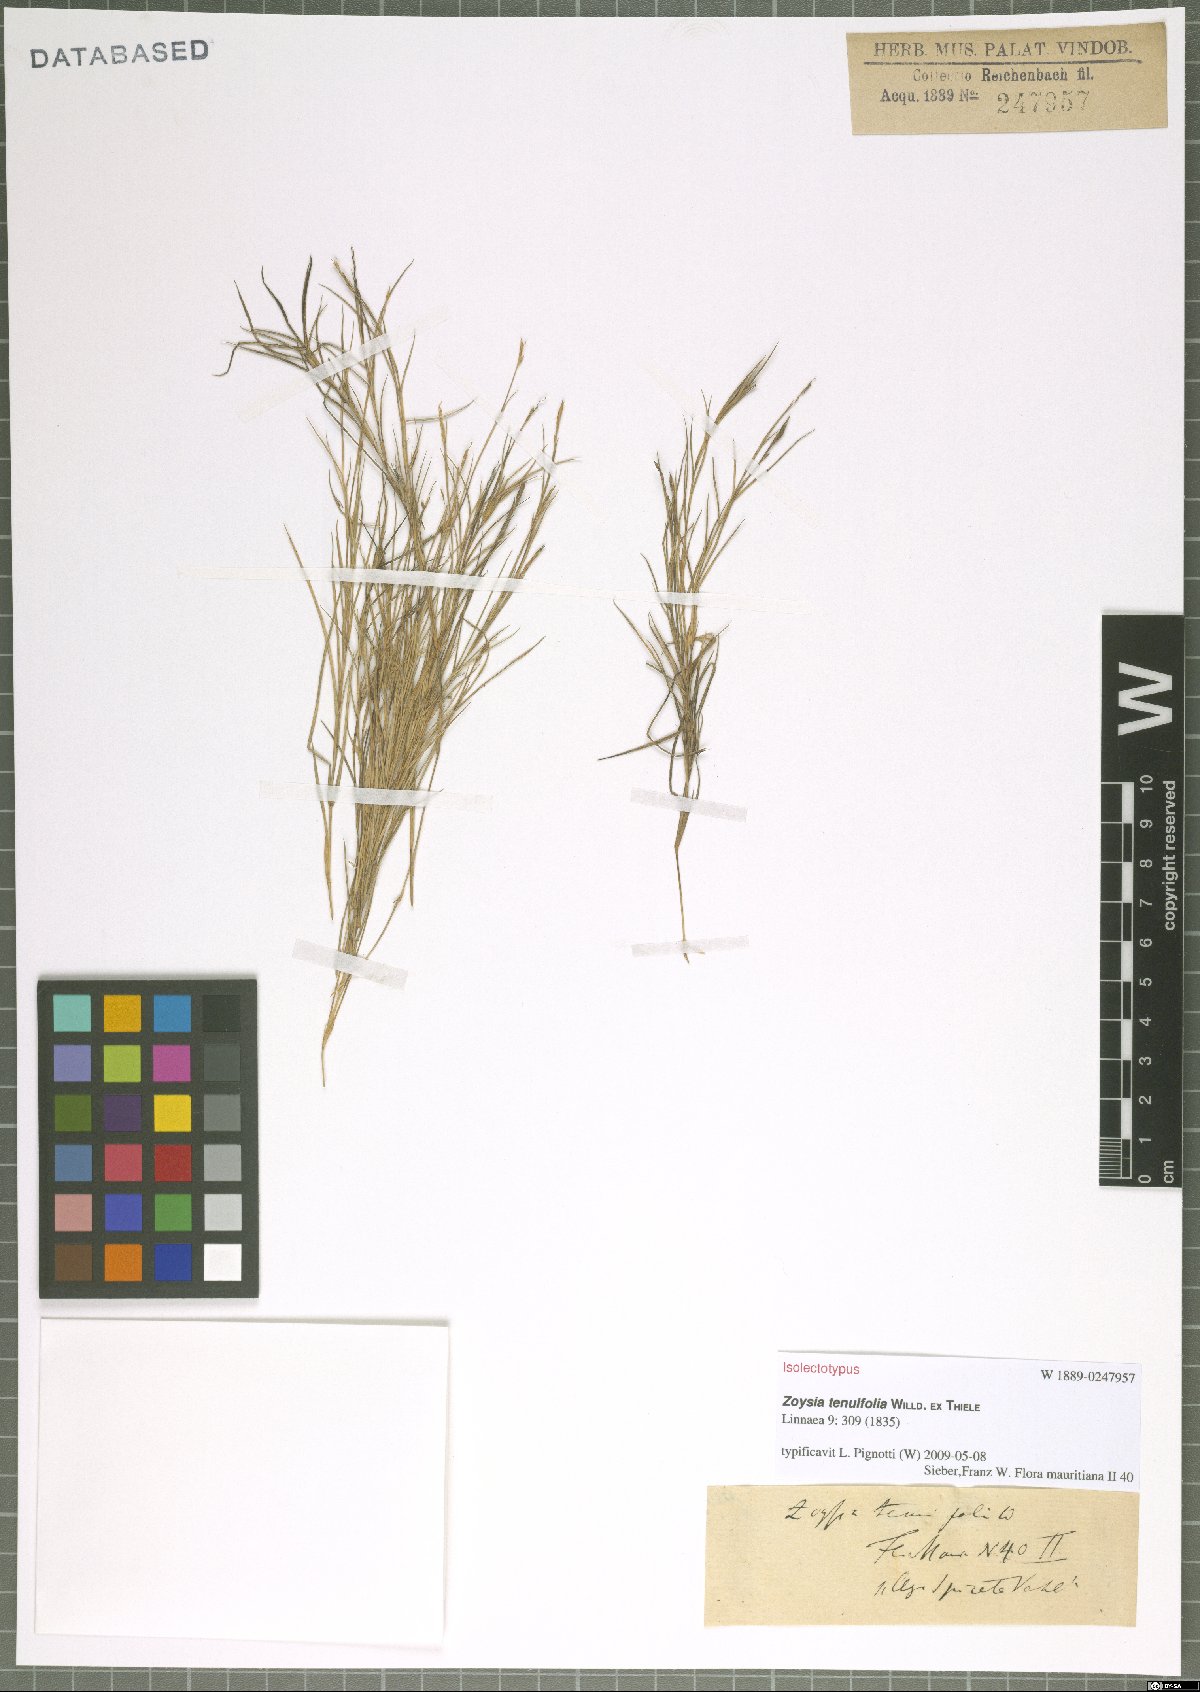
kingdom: Plantae
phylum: Tracheophyta
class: Liliopsida
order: Poales
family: Poaceae
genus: Zoysia
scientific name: Zoysia matrella
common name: Manila grass
